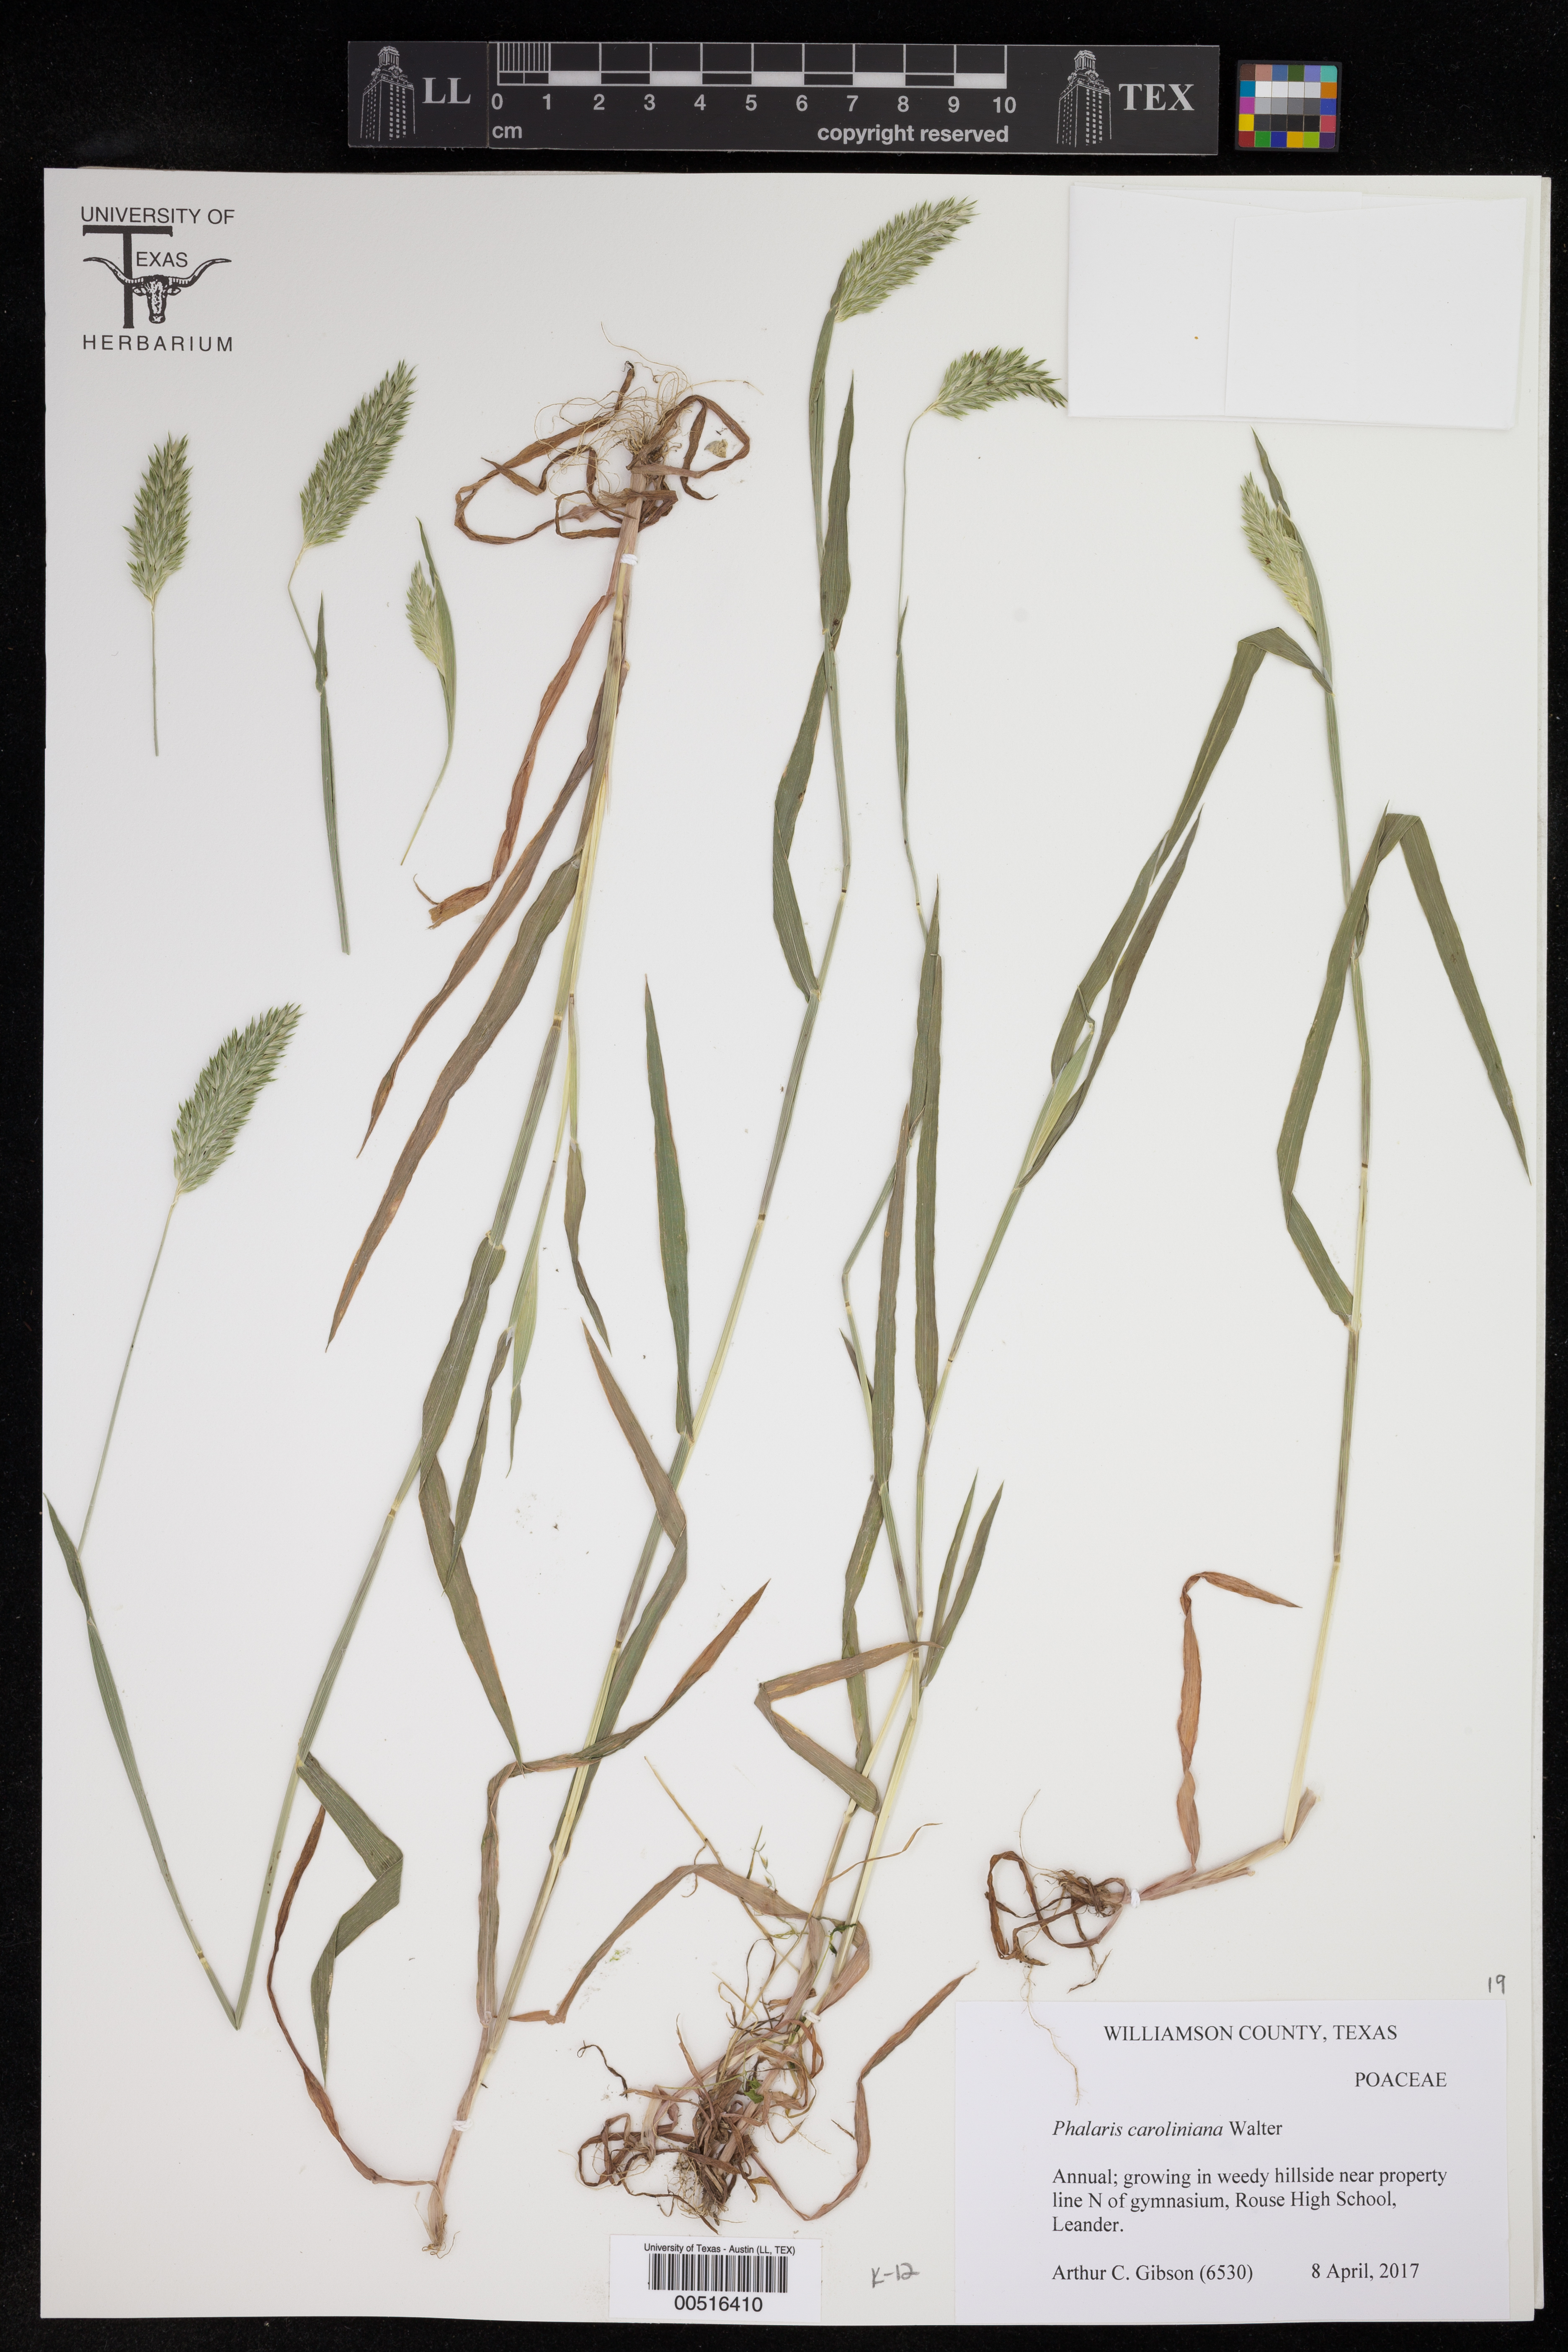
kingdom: Plantae
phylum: Tracheophyta
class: Liliopsida
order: Poales
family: Poaceae
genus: Phalaris
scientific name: Phalaris caroliniana
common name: May grass
